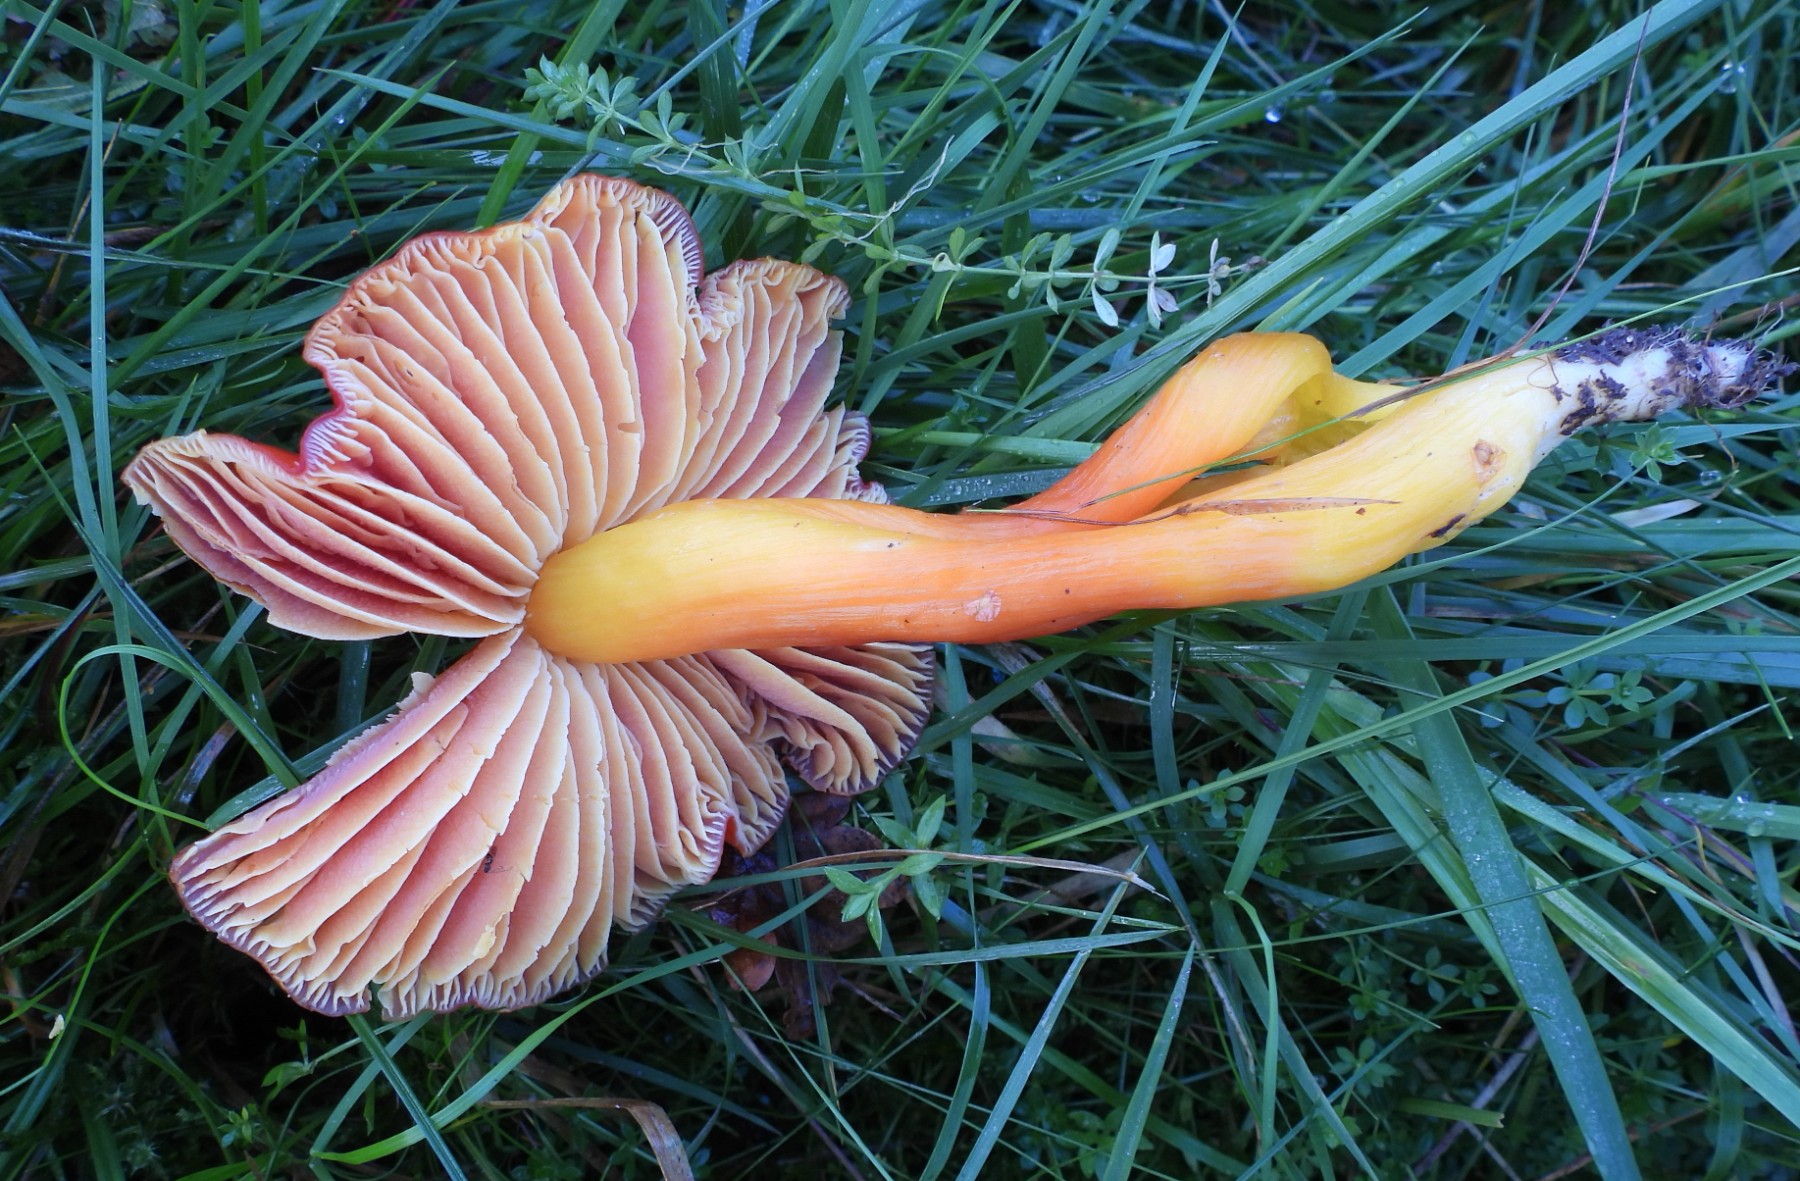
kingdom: Fungi
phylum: Basidiomycota
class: Agaricomycetes
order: Agaricales
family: Hygrophoraceae
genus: Hygrocybe
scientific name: Hygrocybe splendidissima
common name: knaldrød vokshat
